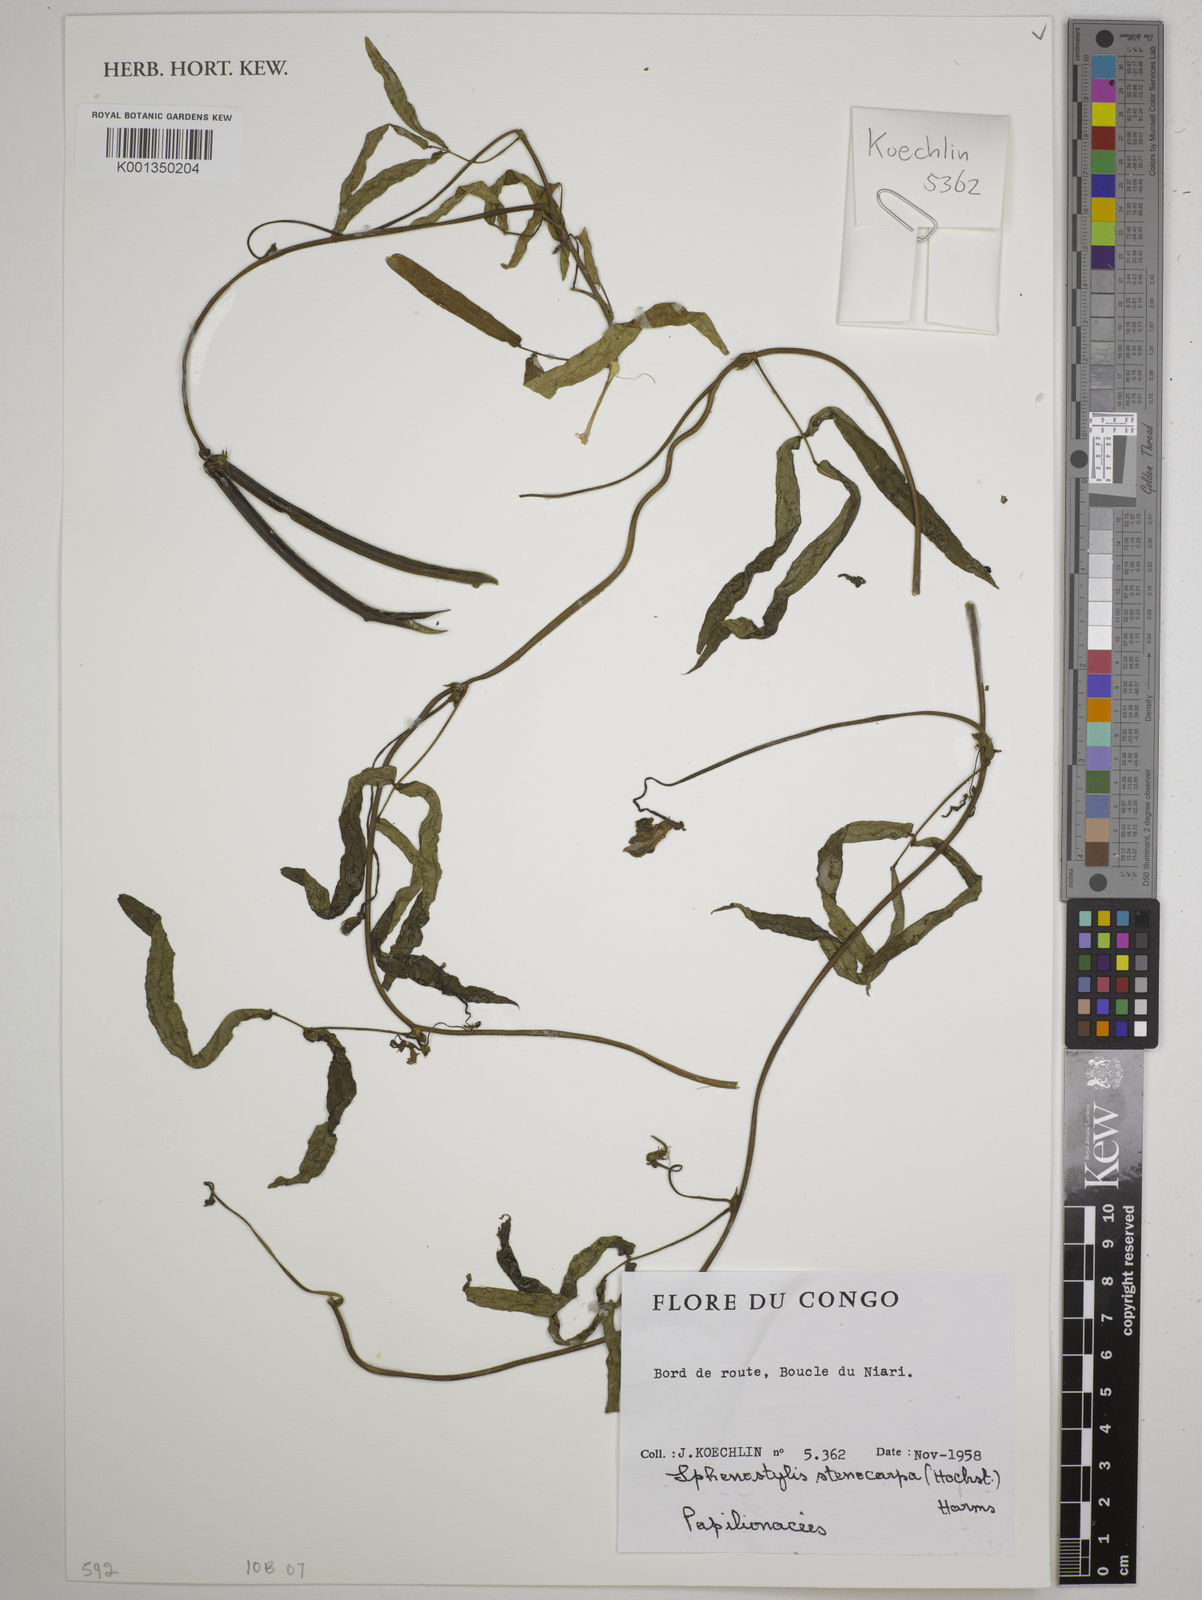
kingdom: Plantae
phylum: Tracheophyta
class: Magnoliopsida
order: Fabales
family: Fabaceae
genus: Sphenostylis
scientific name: Sphenostylis stenocarpa
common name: Yam-pea
